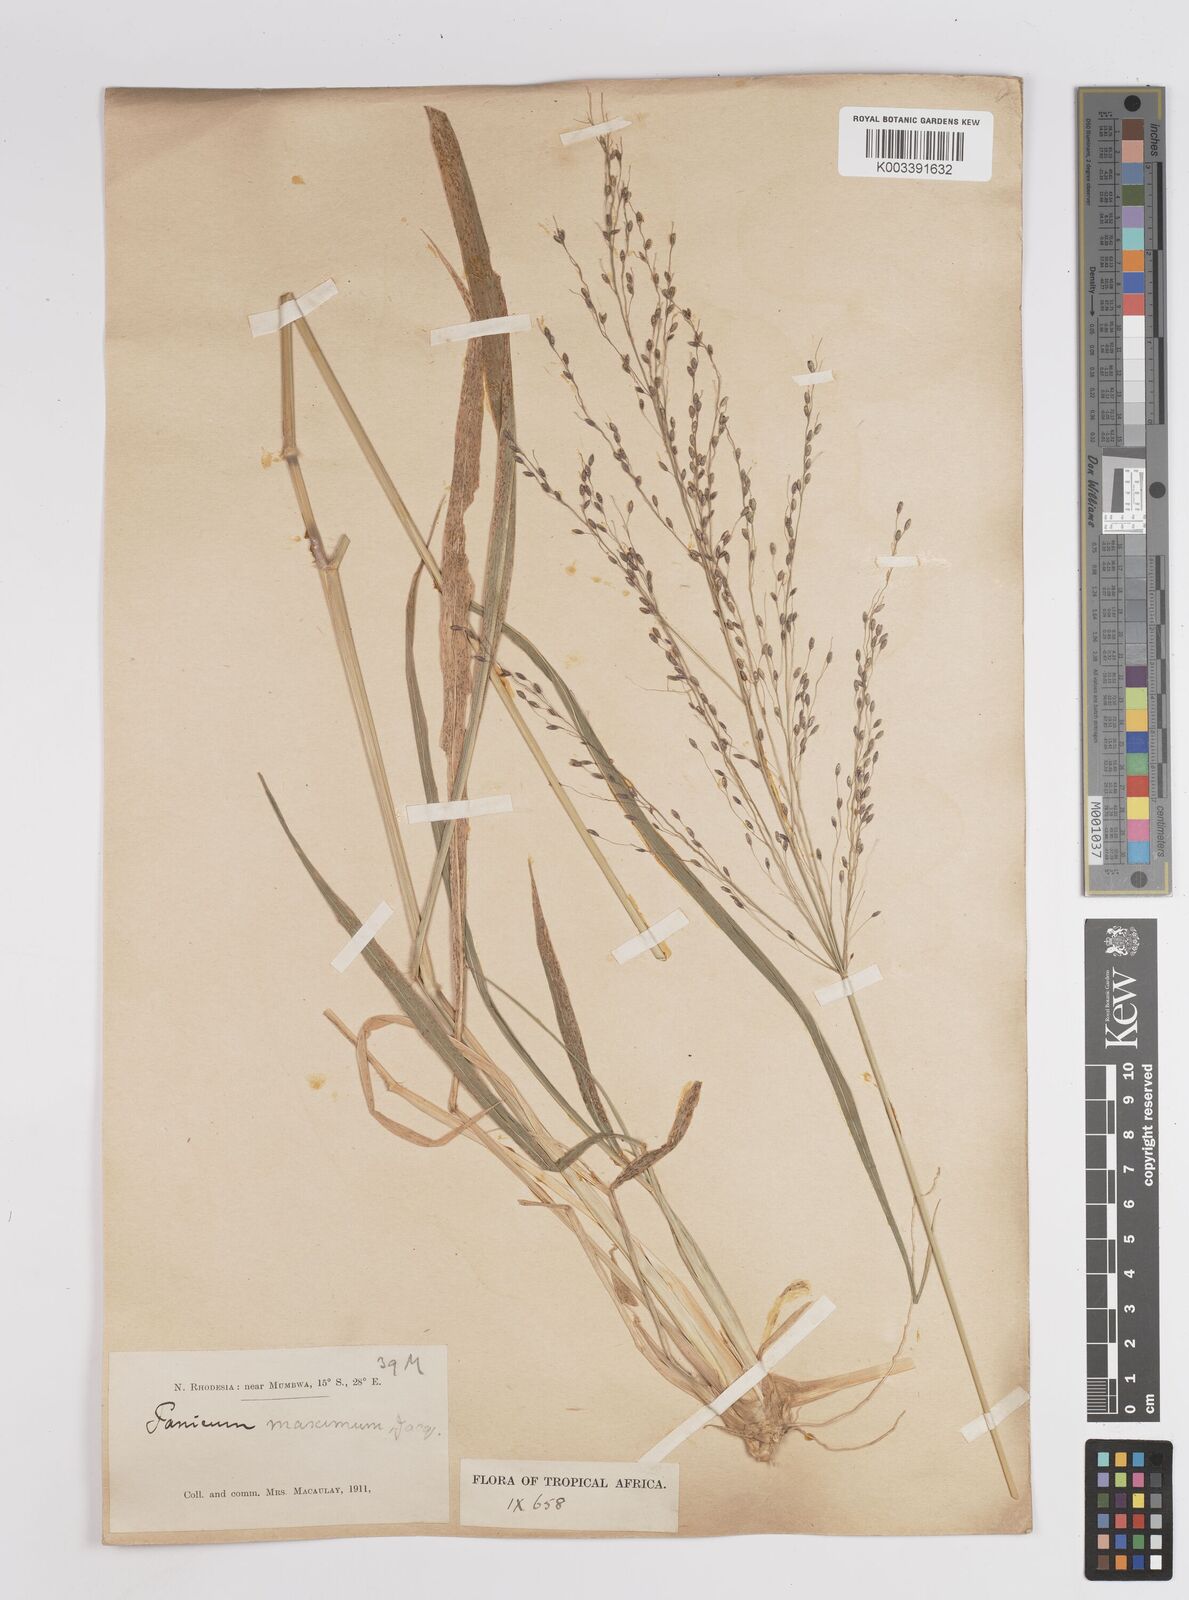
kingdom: Plantae
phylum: Tracheophyta
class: Liliopsida
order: Poales
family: Poaceae
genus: Megathyrsus
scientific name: Megathyrsus maximus
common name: Guineagrass
